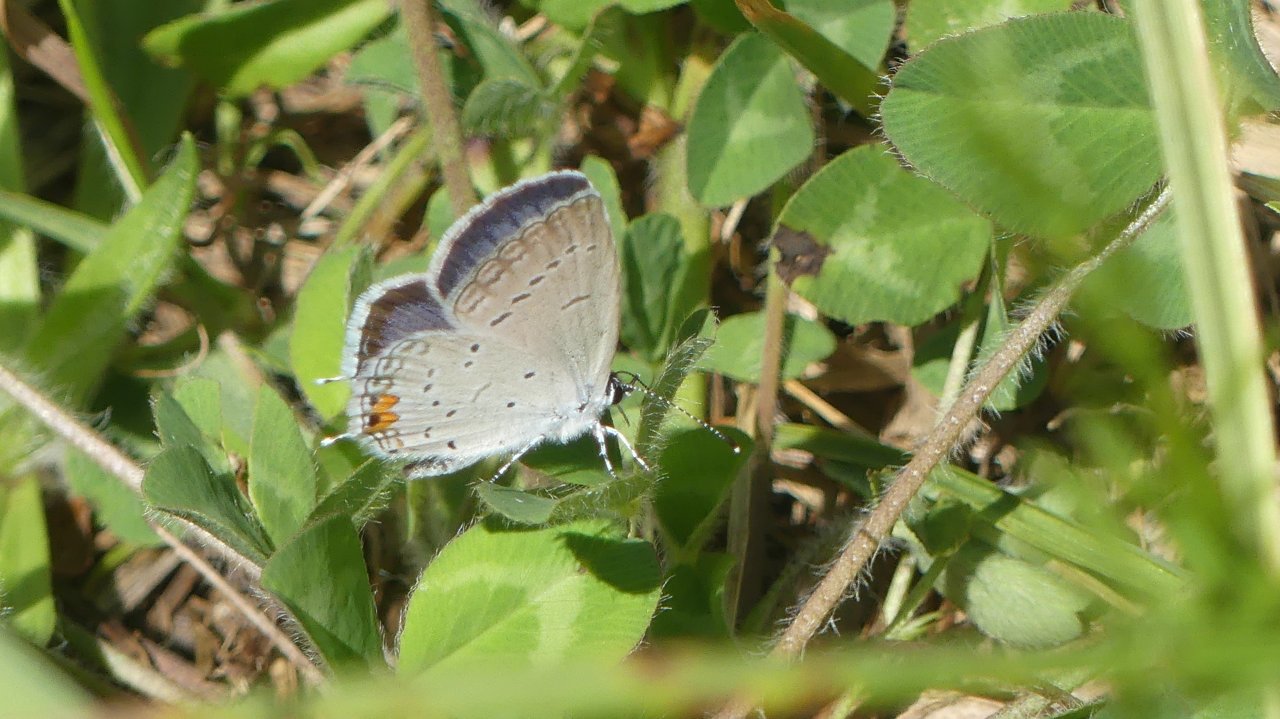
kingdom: Animalia
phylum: Arthropoda
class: Insecta
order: Lepidoptera
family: Lycaenidae
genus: Elkalyce
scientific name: Elkalyce comyntas
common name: Eastern Tailed-Blue
